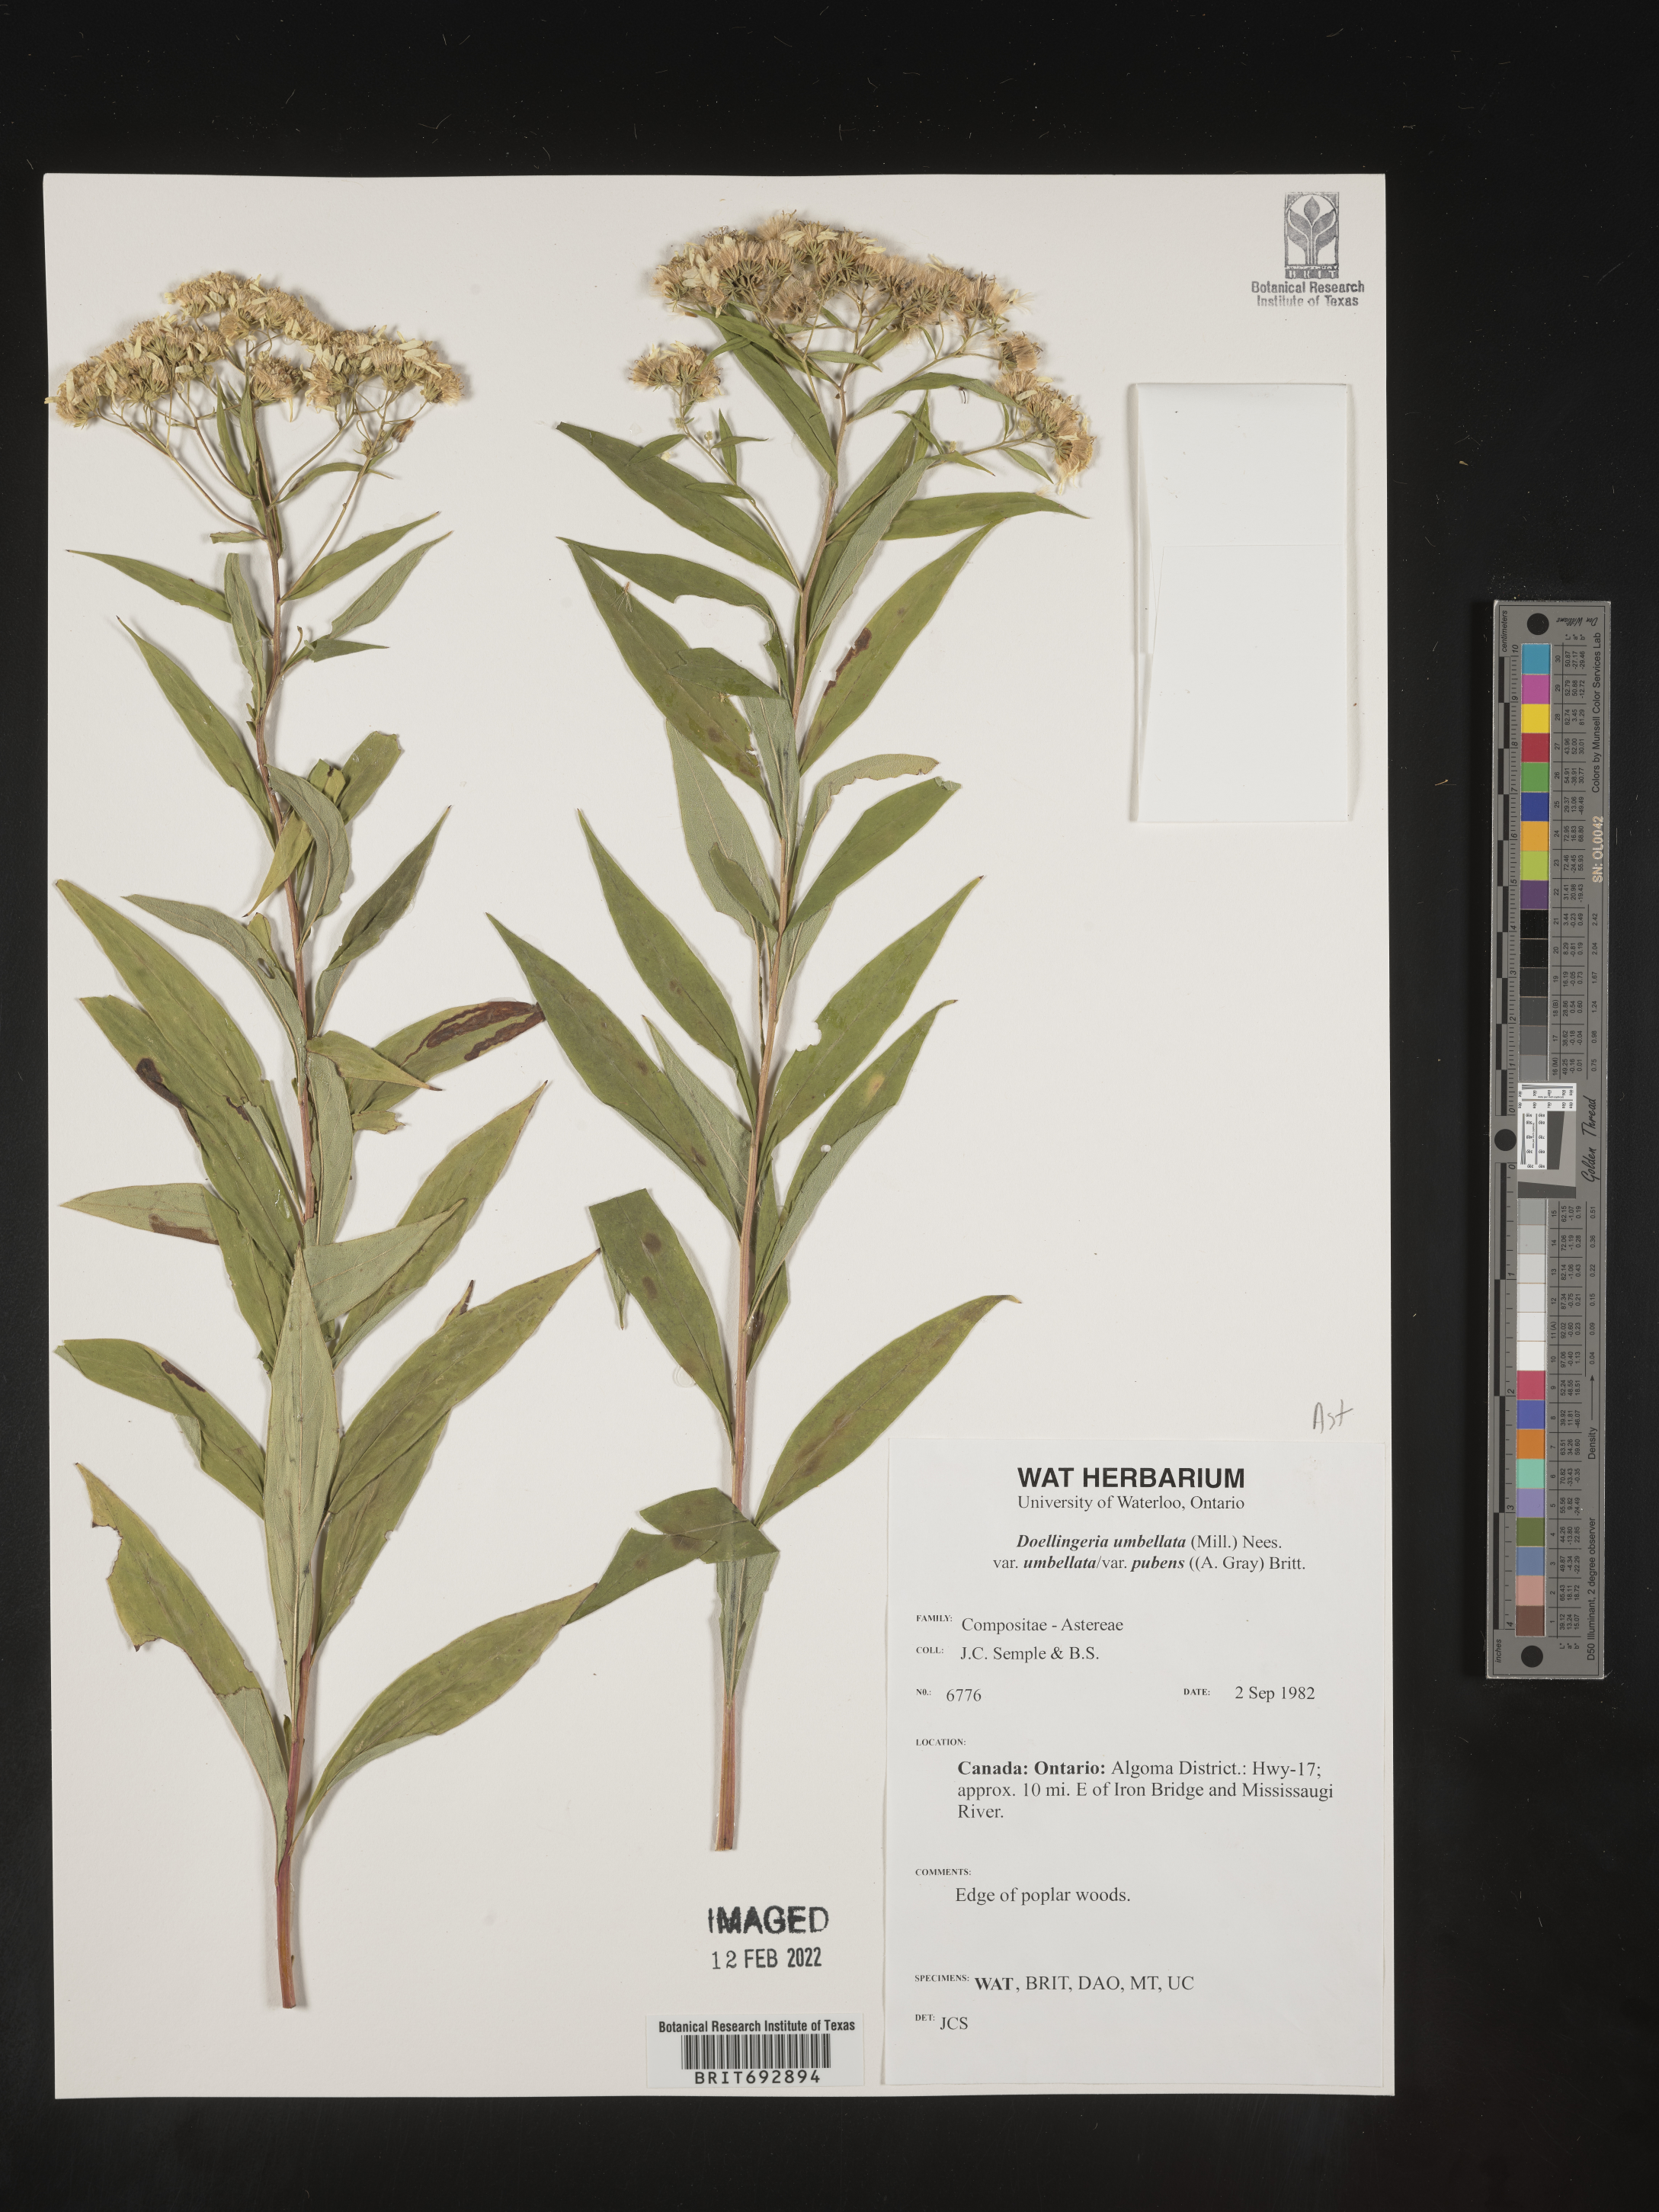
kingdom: Plantae
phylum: Tracheophyta
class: Magnoliopsida
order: Asterales
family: Asteraceae
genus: Doellingeria
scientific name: Doellingeria umbellata
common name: Flat-top white aster
